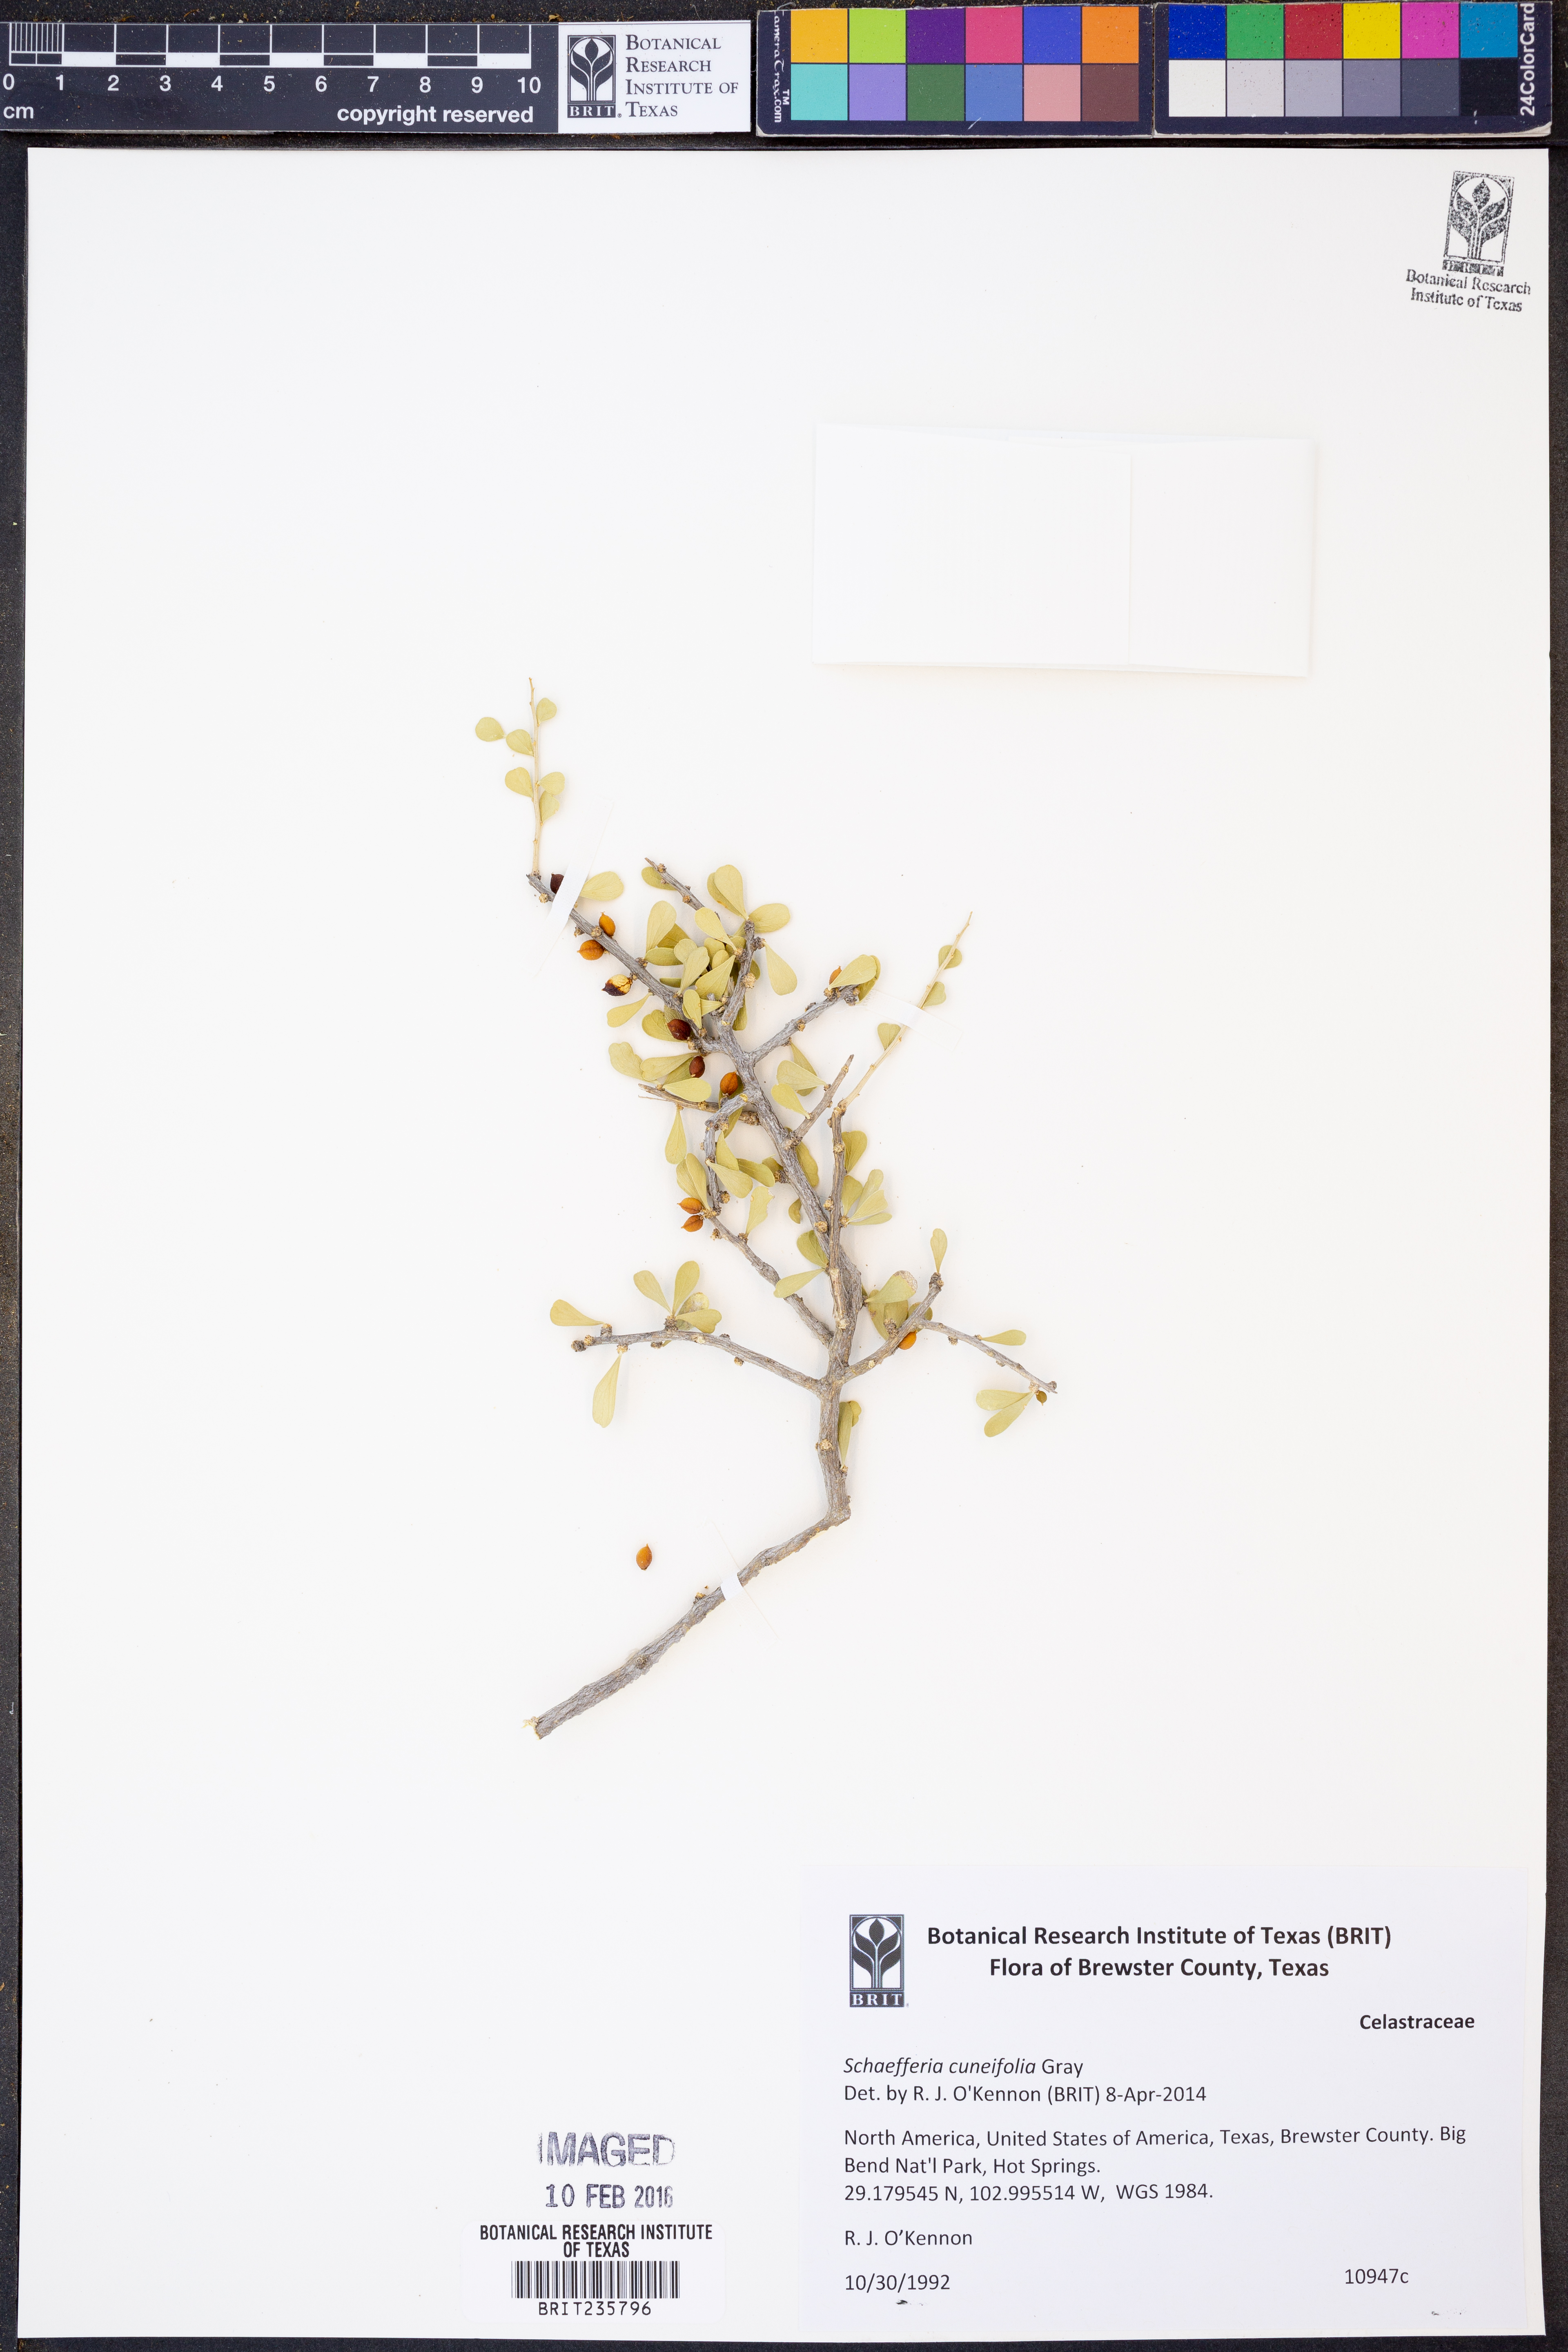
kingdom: Plantae
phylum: Tracheophyta
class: Magnoliopsida
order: Celastrales
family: Celastraceae
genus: Schaefferia
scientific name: Schaefferia cuneifolia
